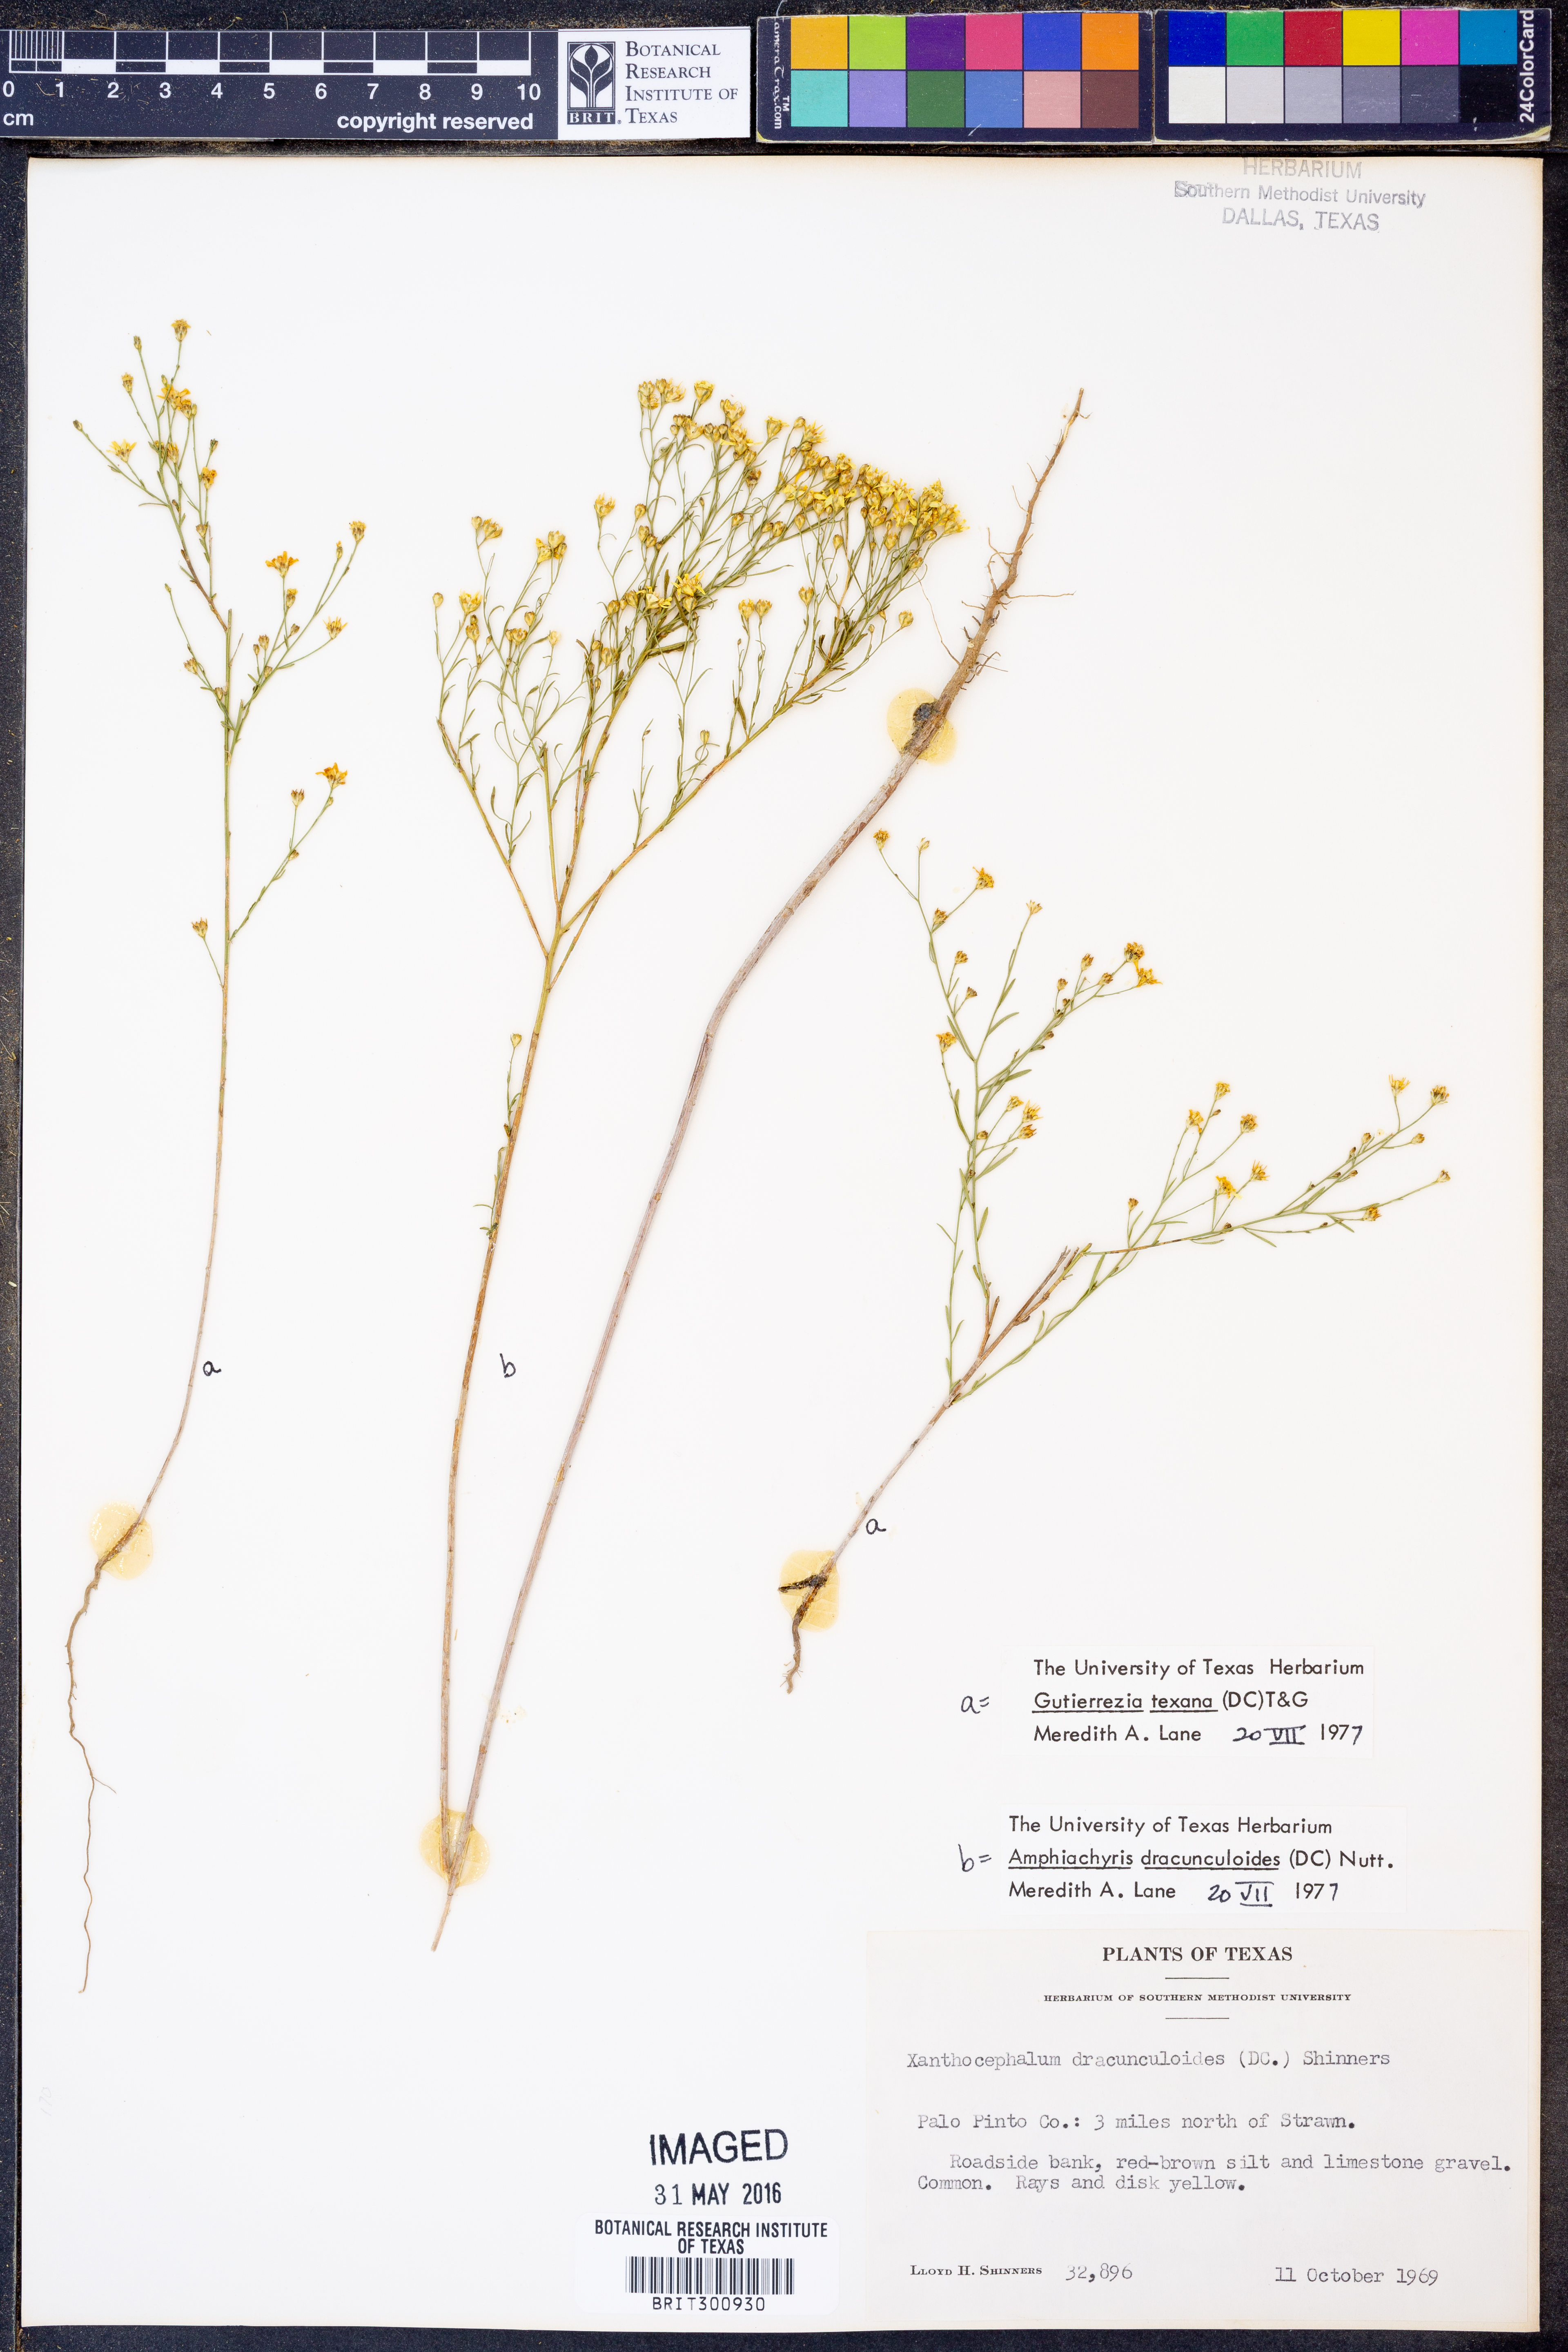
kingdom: Plantae
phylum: Tracheophyta
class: Magnoliopsida
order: Asterales
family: Asteraceae
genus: Gutierrezia
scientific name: Gutierrezia texana
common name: Texas snakeweed
